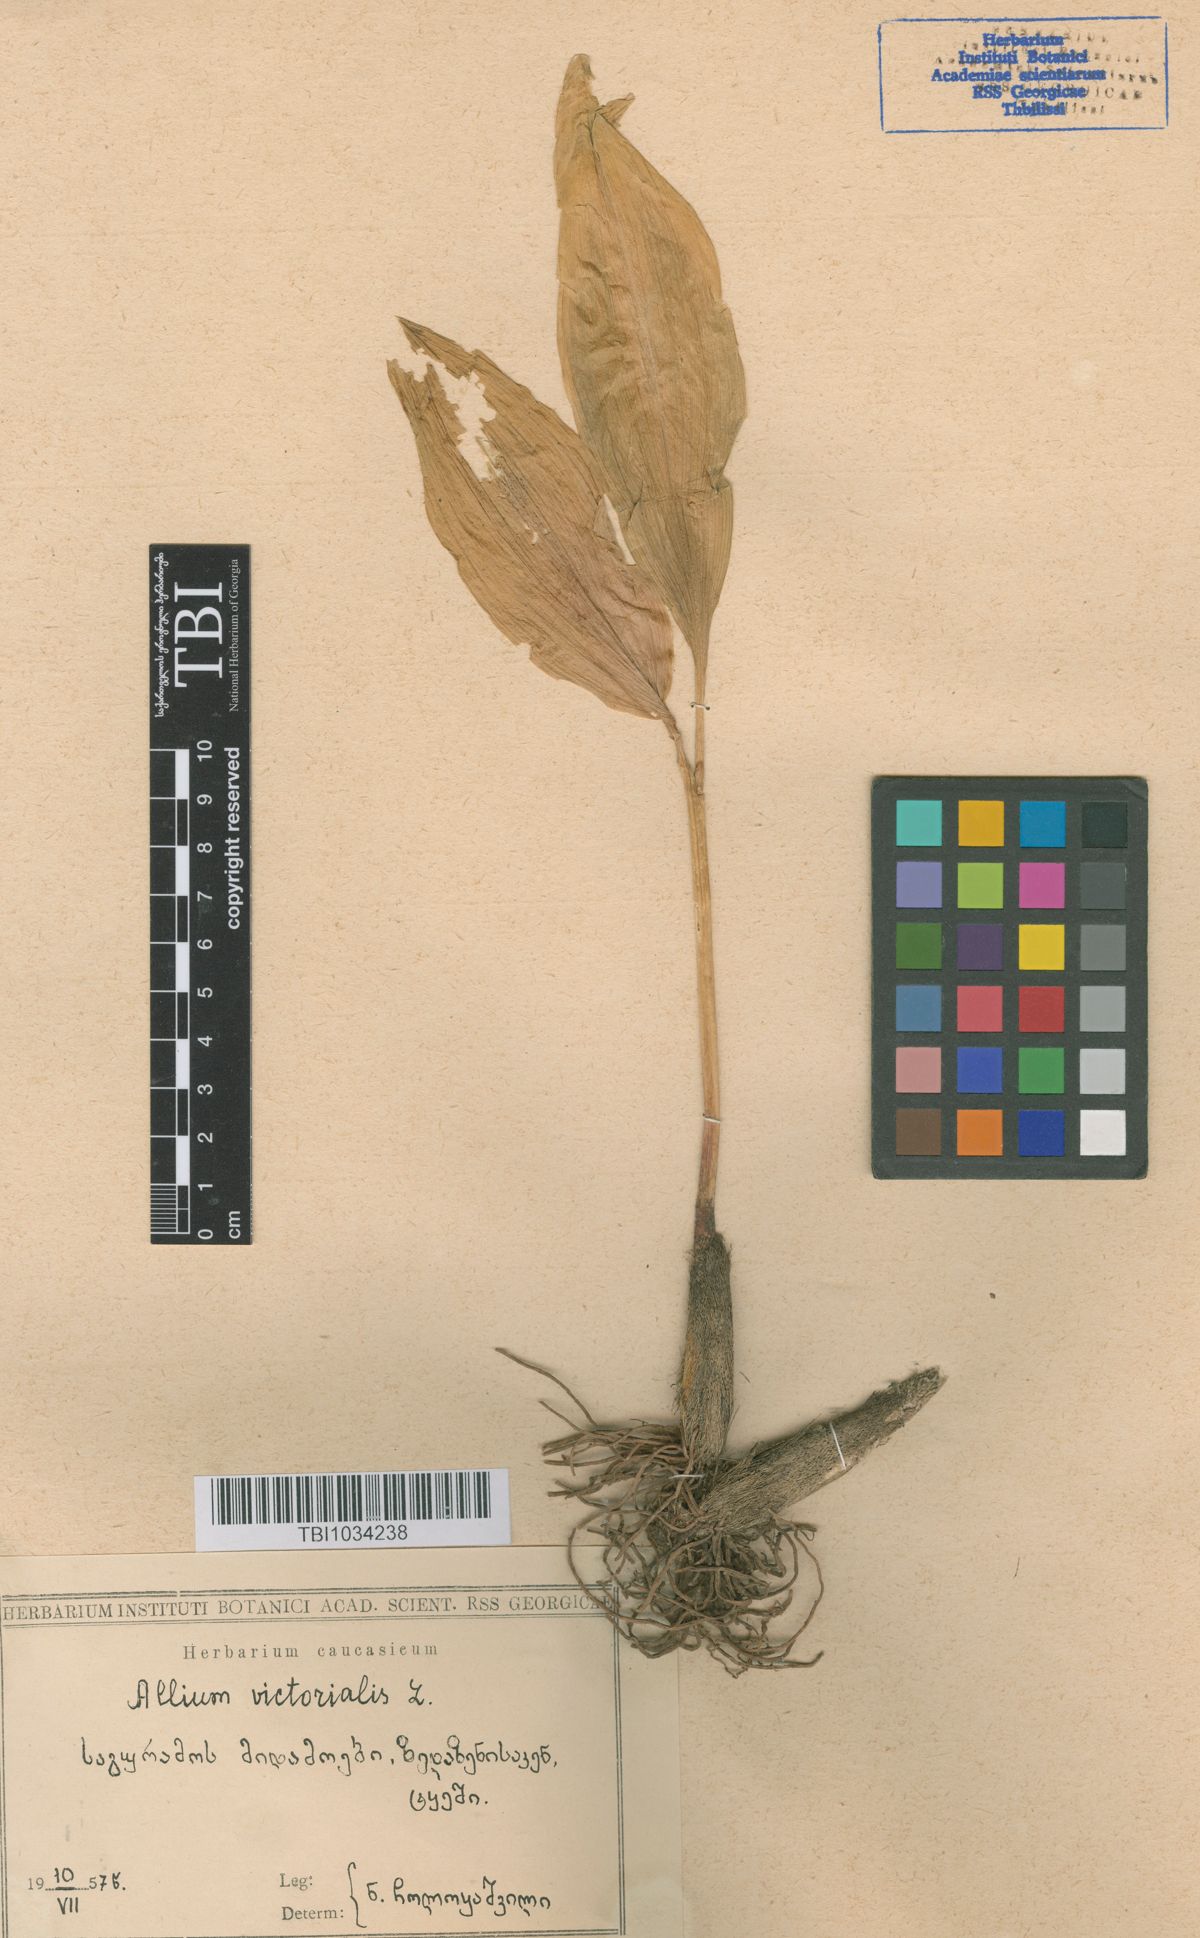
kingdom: Plantae
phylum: Tracheophyta
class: Liliopsida
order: Asparagales
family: Amaryllidaceae
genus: Allium
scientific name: Allium victorialis
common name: Alpine leek
